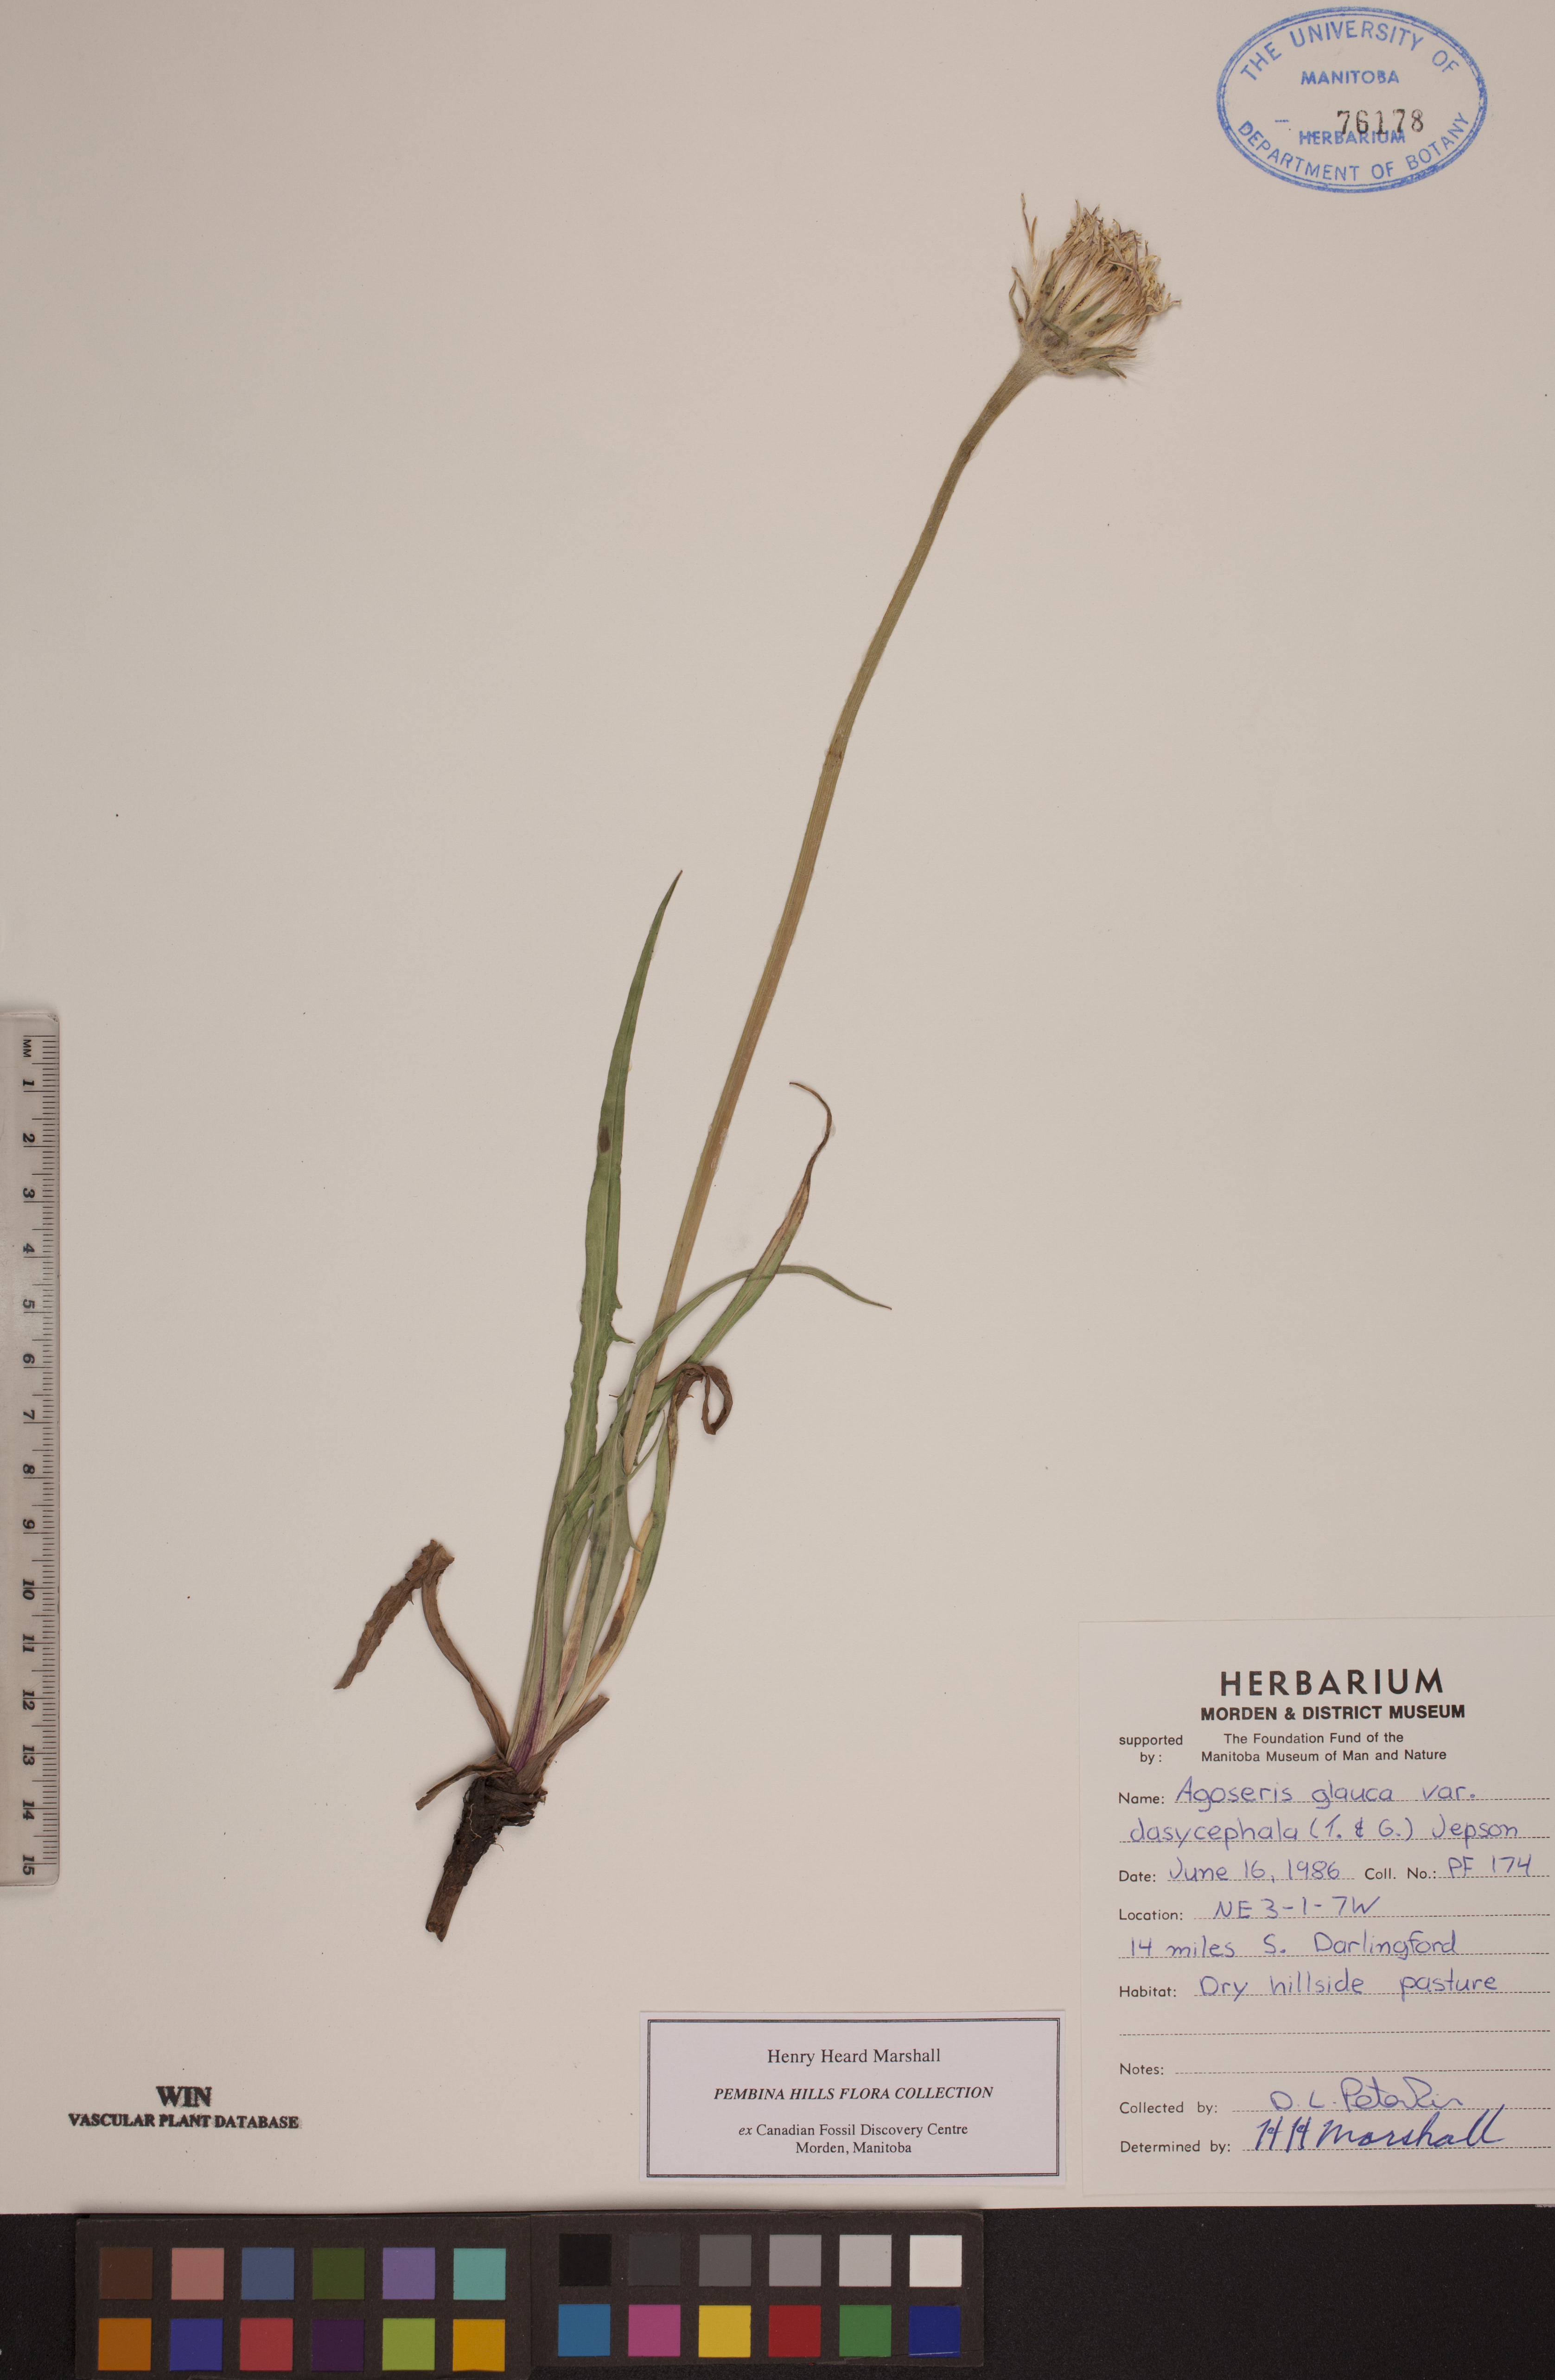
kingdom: Plantae
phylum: Tracheophyta
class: Magnoliopsida
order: Asterales
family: Asteraceae
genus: Agoseris
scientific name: Agoseris glauca
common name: Prairie agoseris
